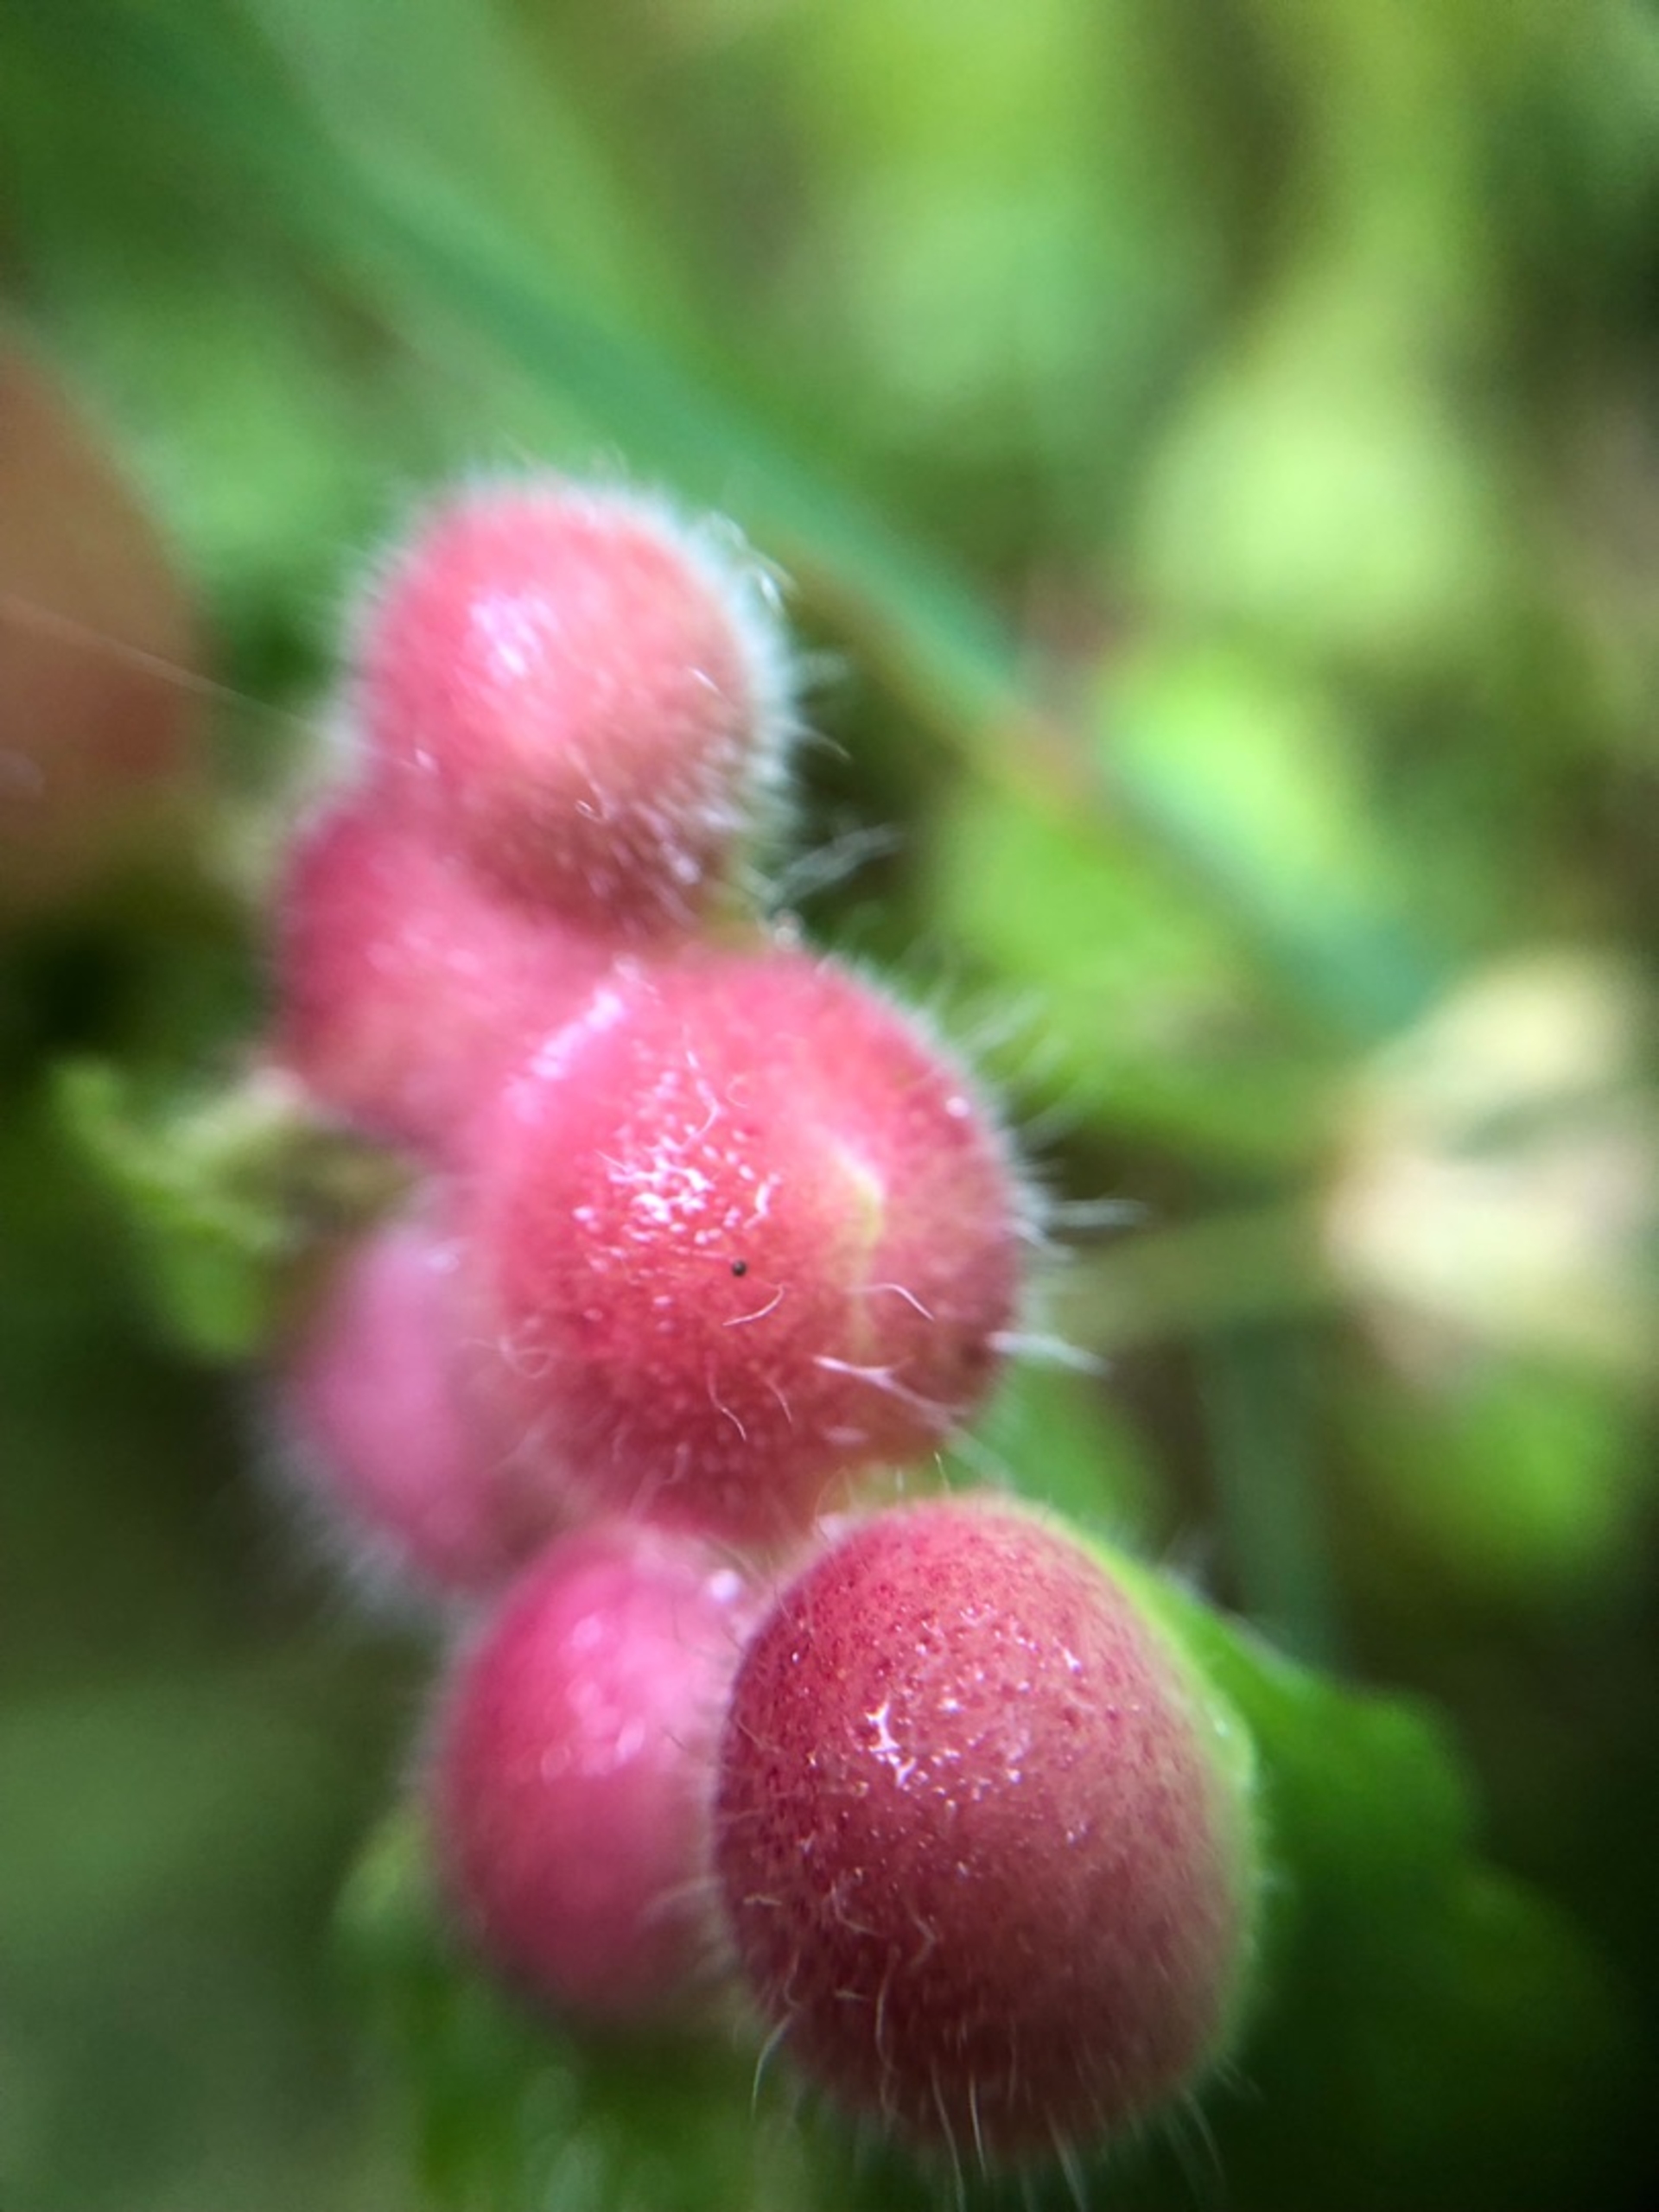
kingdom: Animalia
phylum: Arthropoda
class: Insecta
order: Hymenoptera
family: Cynipidae
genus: Liposthenes
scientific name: Liposthenes glechomae
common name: Korsknapgalhveps
